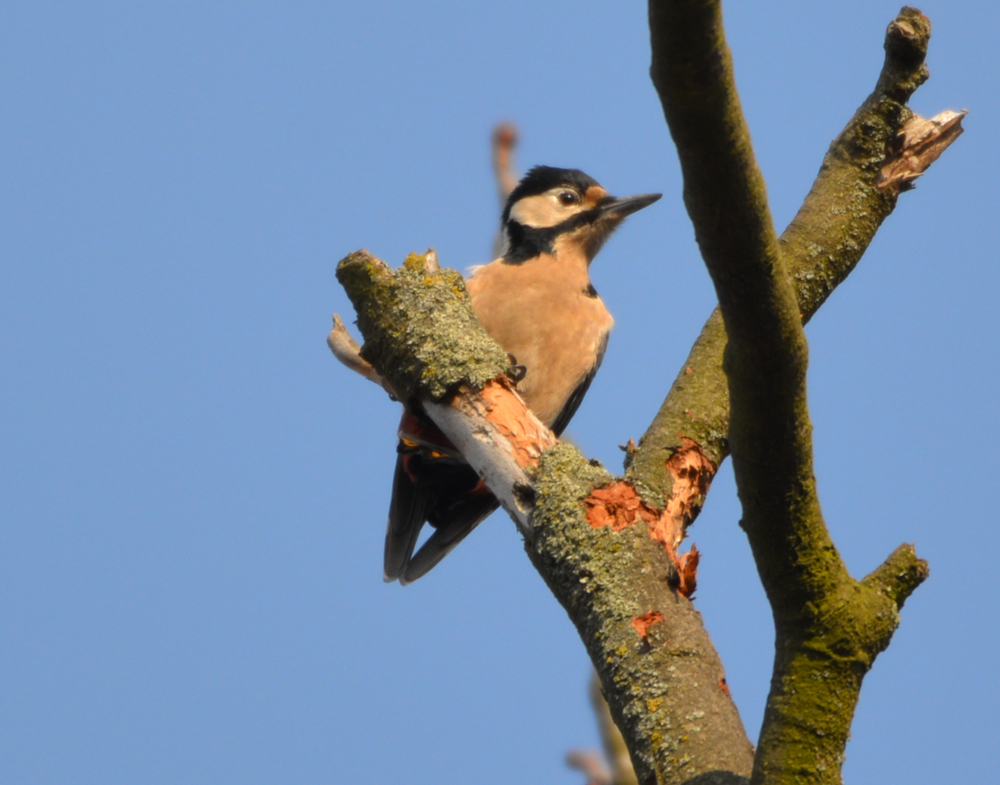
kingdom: Animalia
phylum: Chordata
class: Aves
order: Piciformes
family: Picidae
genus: Dendrocopos
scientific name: Dendrocopos major
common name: Great spotted woodpecker
